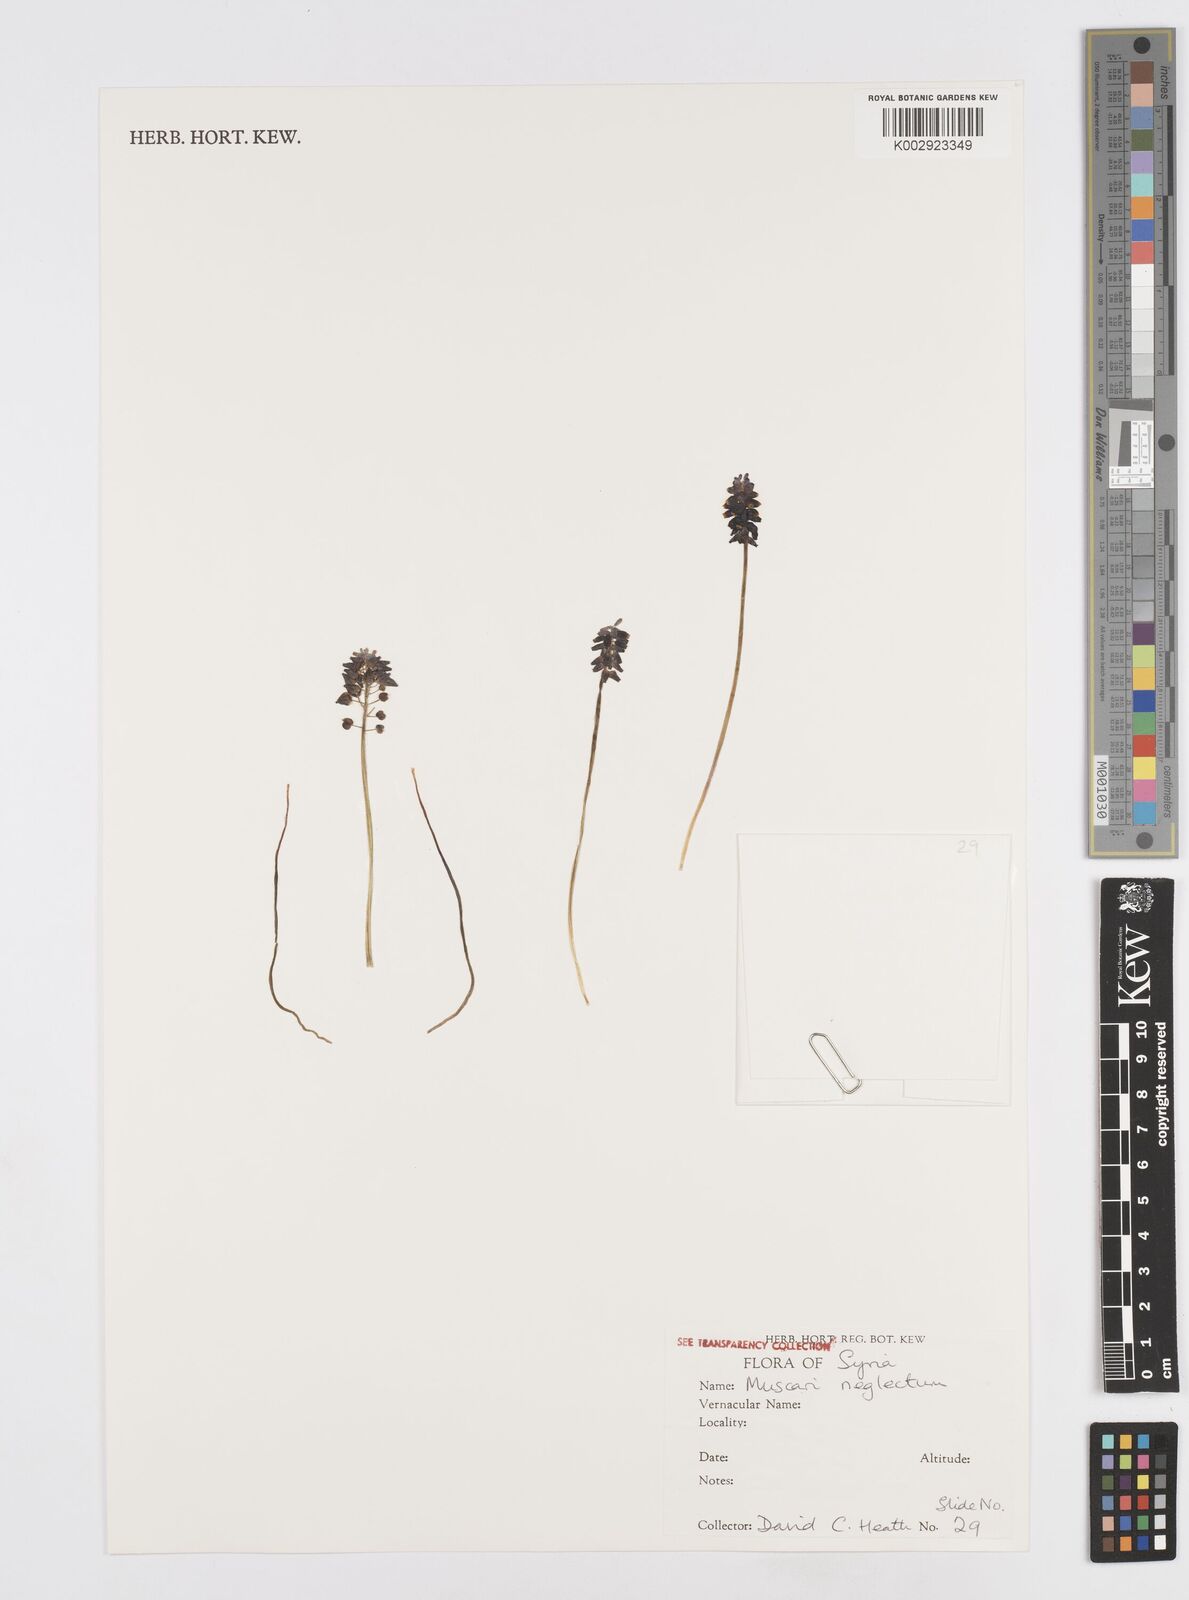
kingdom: Plantae
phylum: Tracheophyta
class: Liliopsida
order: Asparagales
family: Asparagaceae
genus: Muscarimia
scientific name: Muscarimia muscari
